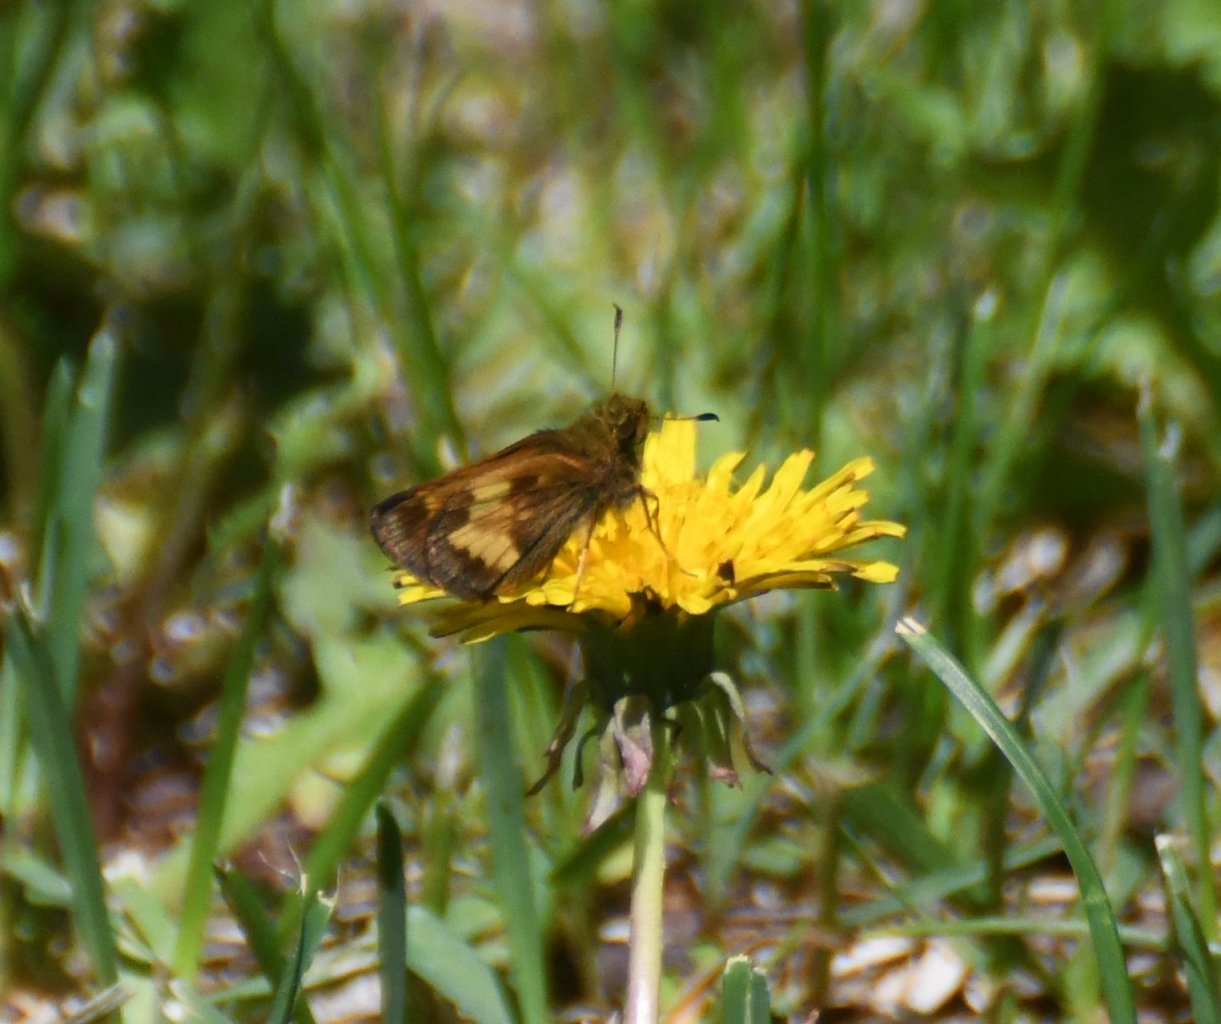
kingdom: Animalia
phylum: Arthropoda
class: Insecta
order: Lepidoptera
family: Hesperiidae
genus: Lon
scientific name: Lon hobomok
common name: Hobomok Skipper
